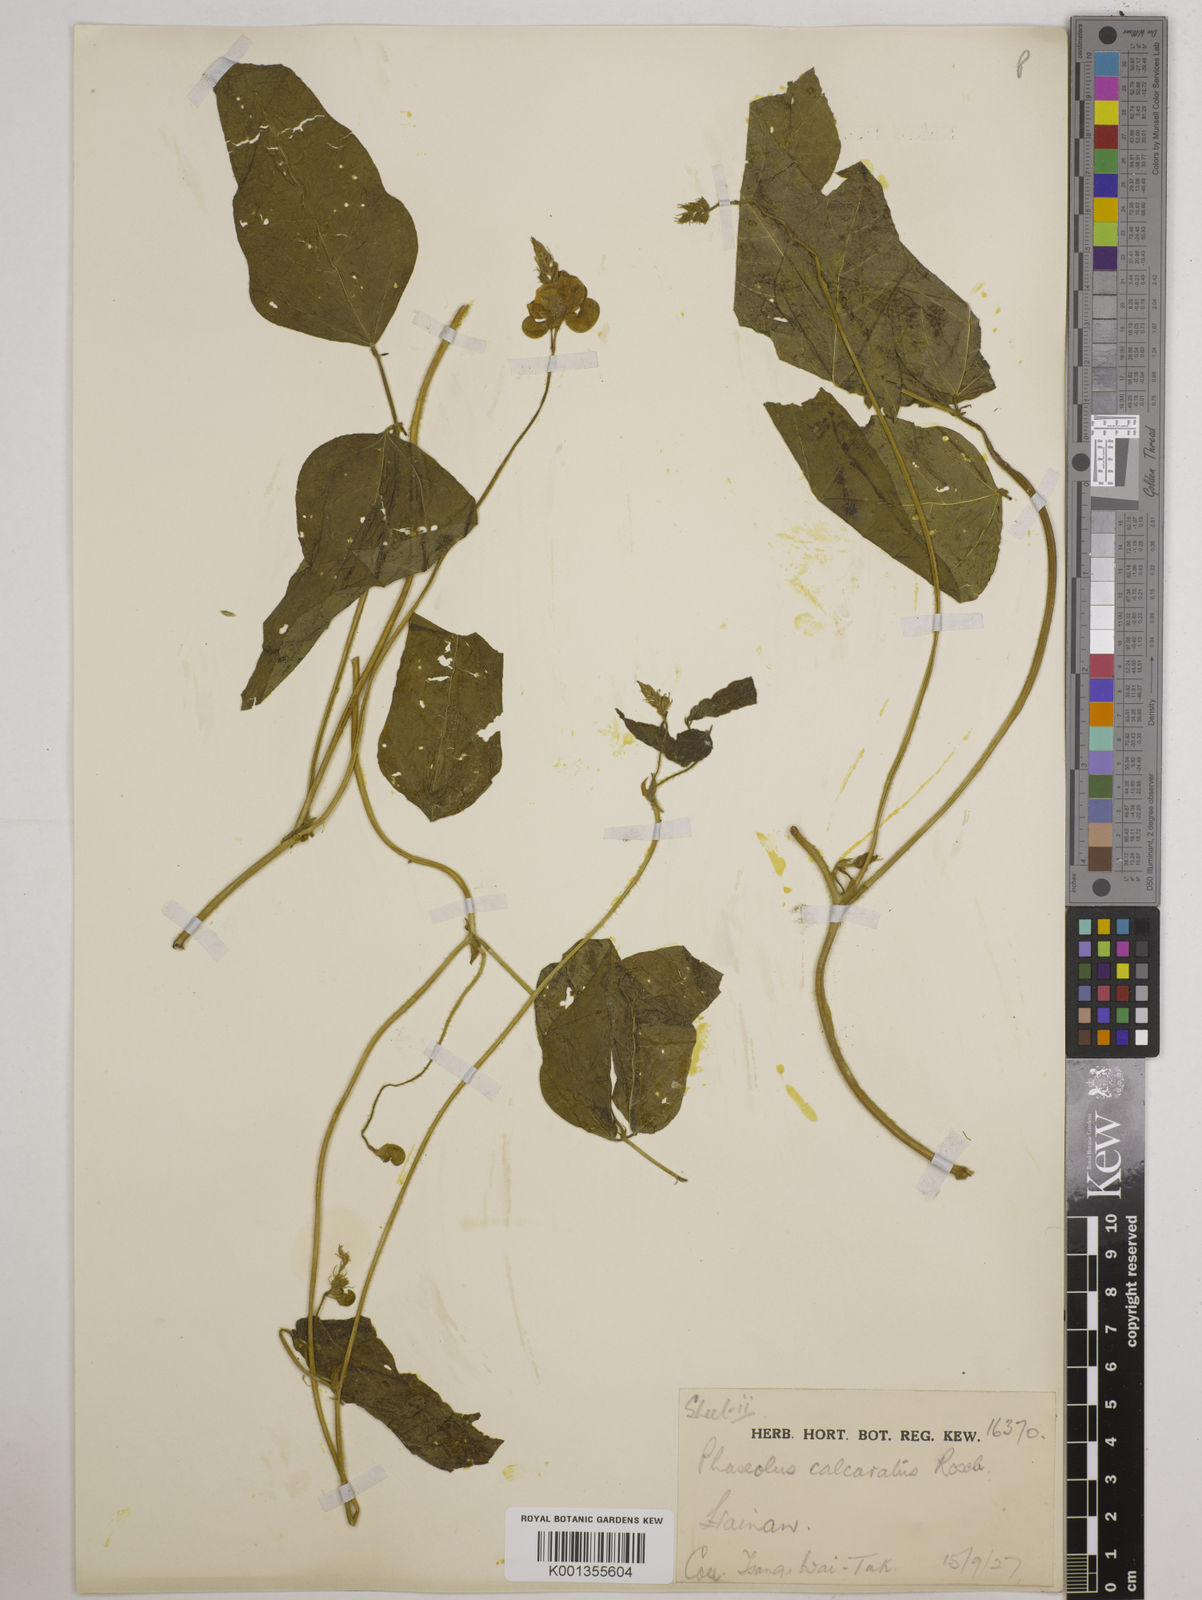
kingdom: Plantae
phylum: Tracheophyta
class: Magnoliopsida
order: Fabales
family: Fabaceae
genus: Vigna
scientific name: Vigna umbellata
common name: Oriental-bean
